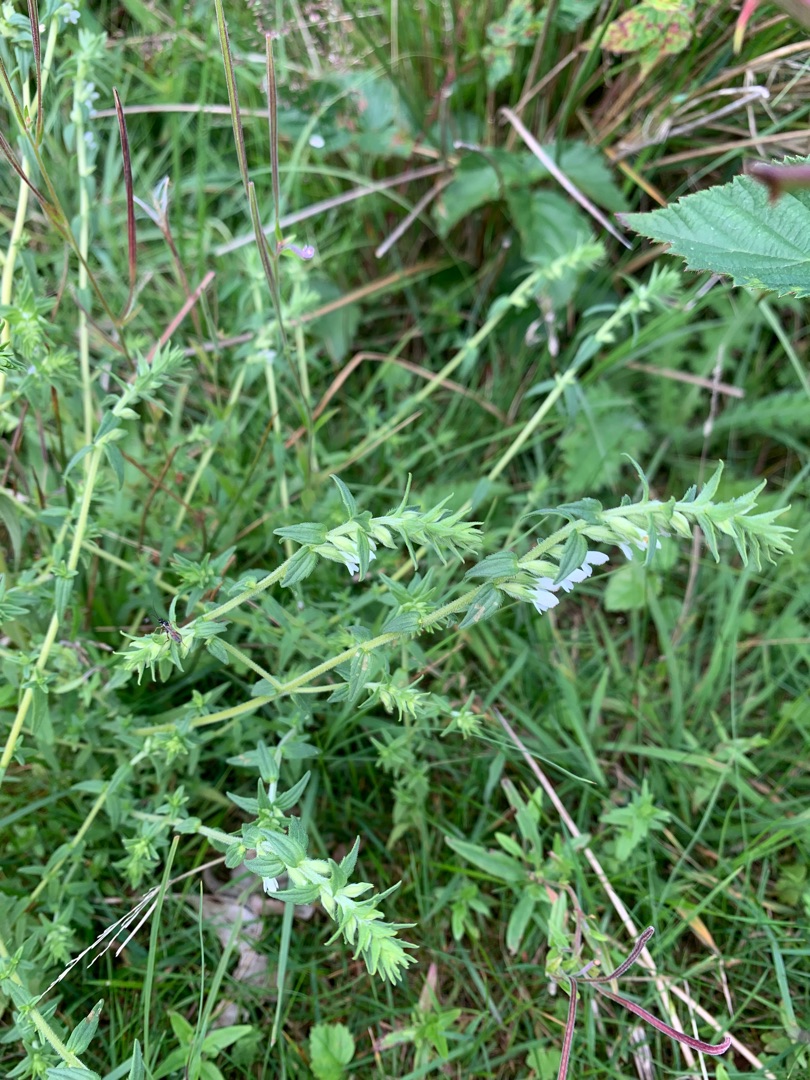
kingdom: Plantae
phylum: Tracheophyta
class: Magnoliopsida
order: Lamiales
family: Orobanchaceae
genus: Odontites
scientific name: Odontites vulgaris
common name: Høst-rødtop
